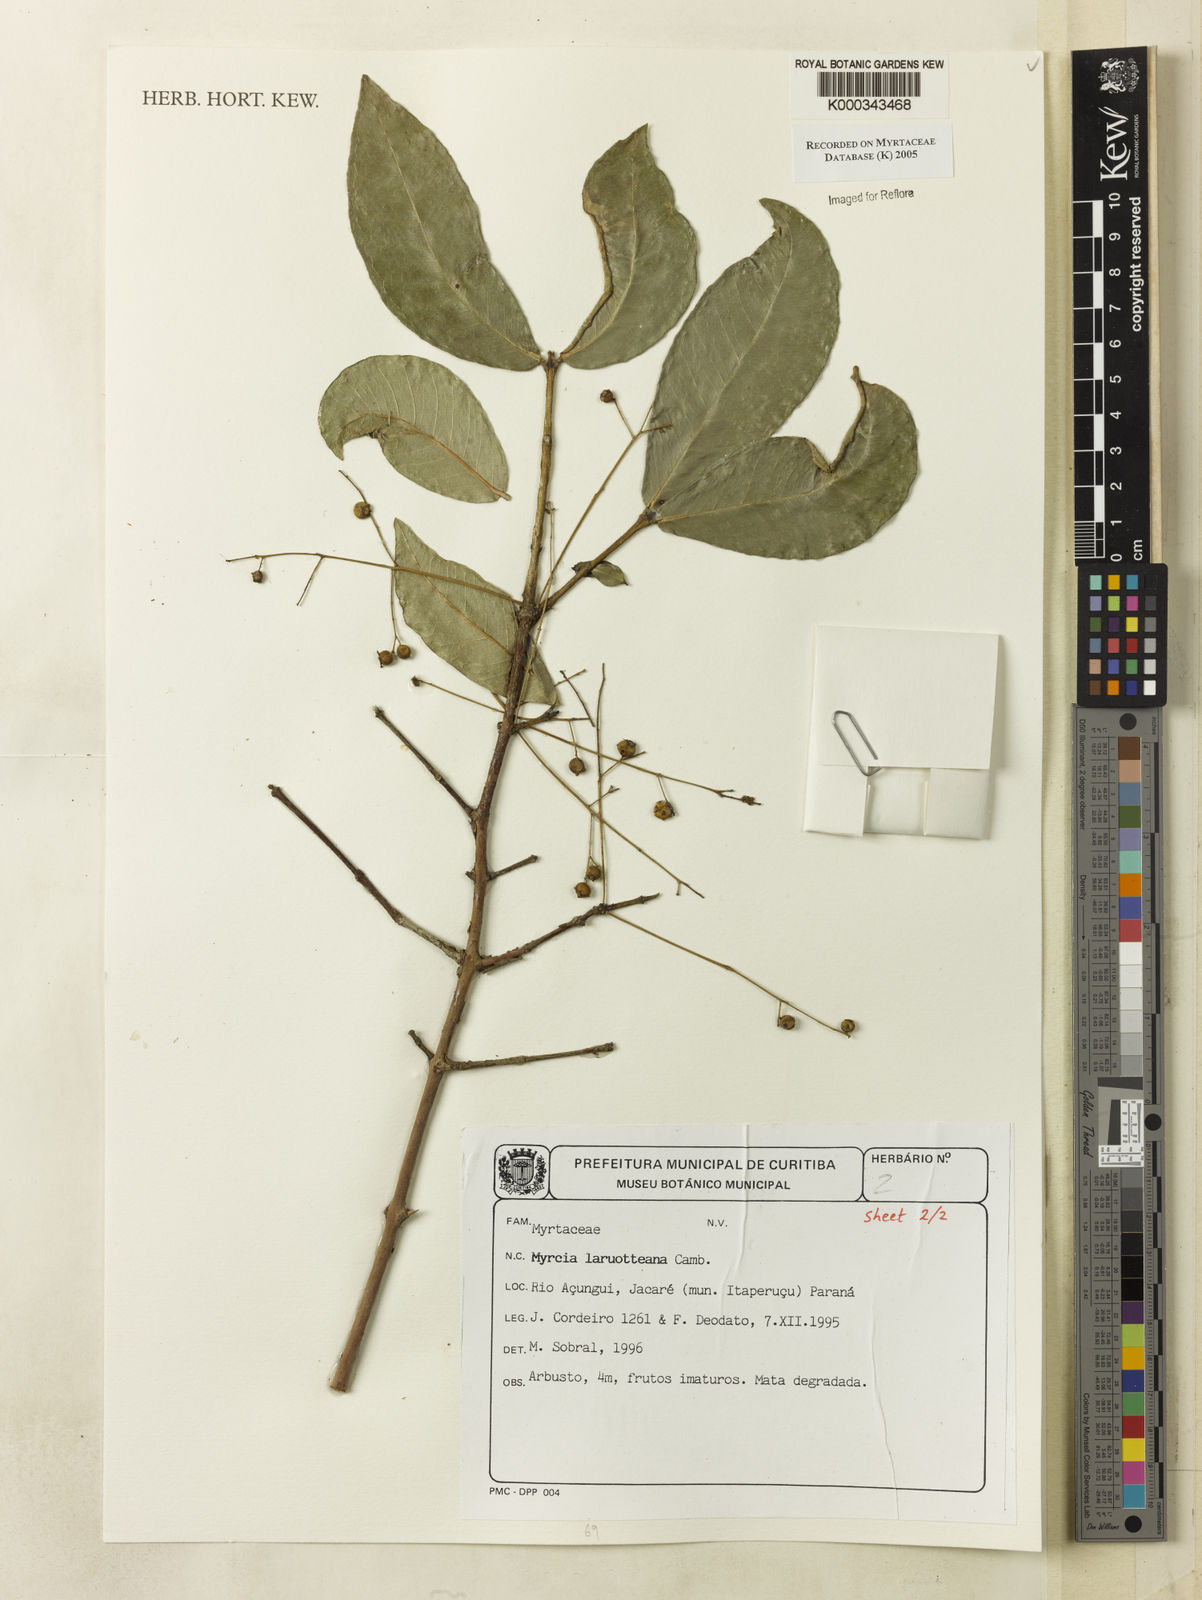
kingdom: Plantae
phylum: Tracheophyta
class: Magnoliopsida
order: Myrtales
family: Myrtaceae
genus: Myrcia
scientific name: Myrcia laruotteana
